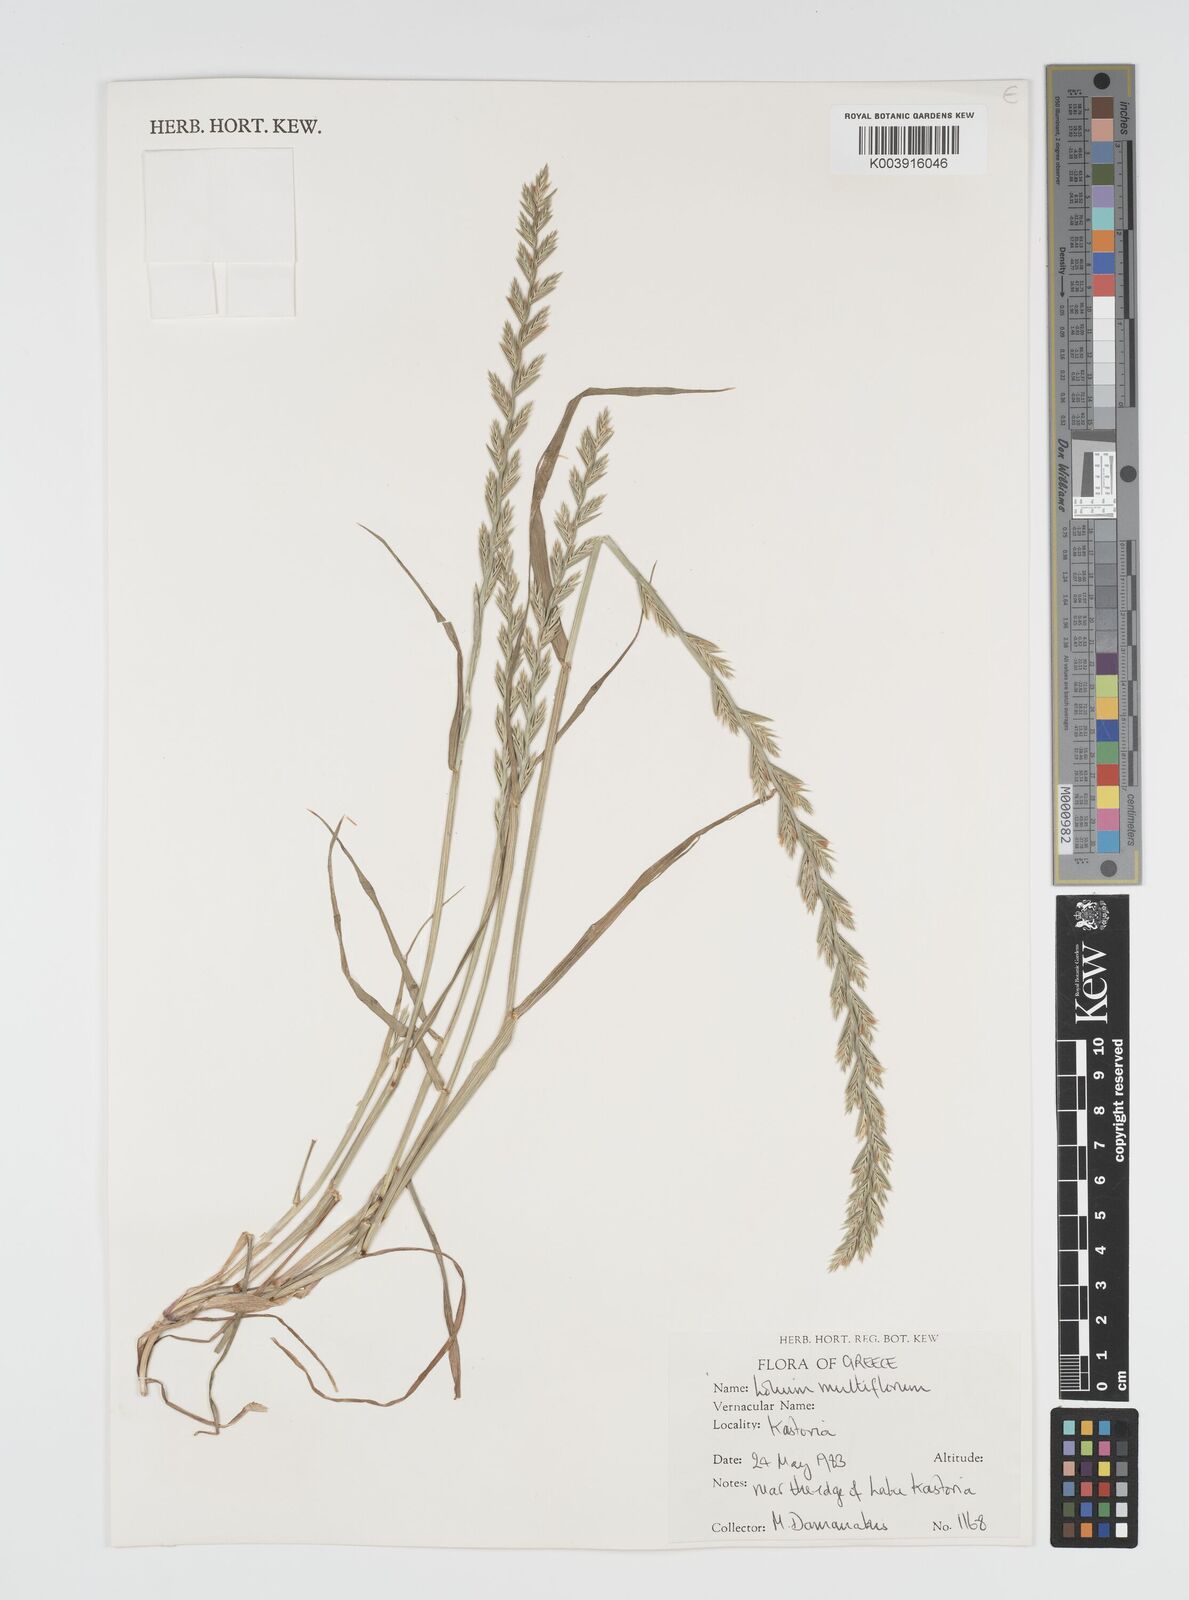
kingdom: Plantae
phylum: Tracheophyta
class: Liliopsida
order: Poales
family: Poaceae
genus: Lolium
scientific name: Lolium multiflorum
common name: Annual ryegrass
